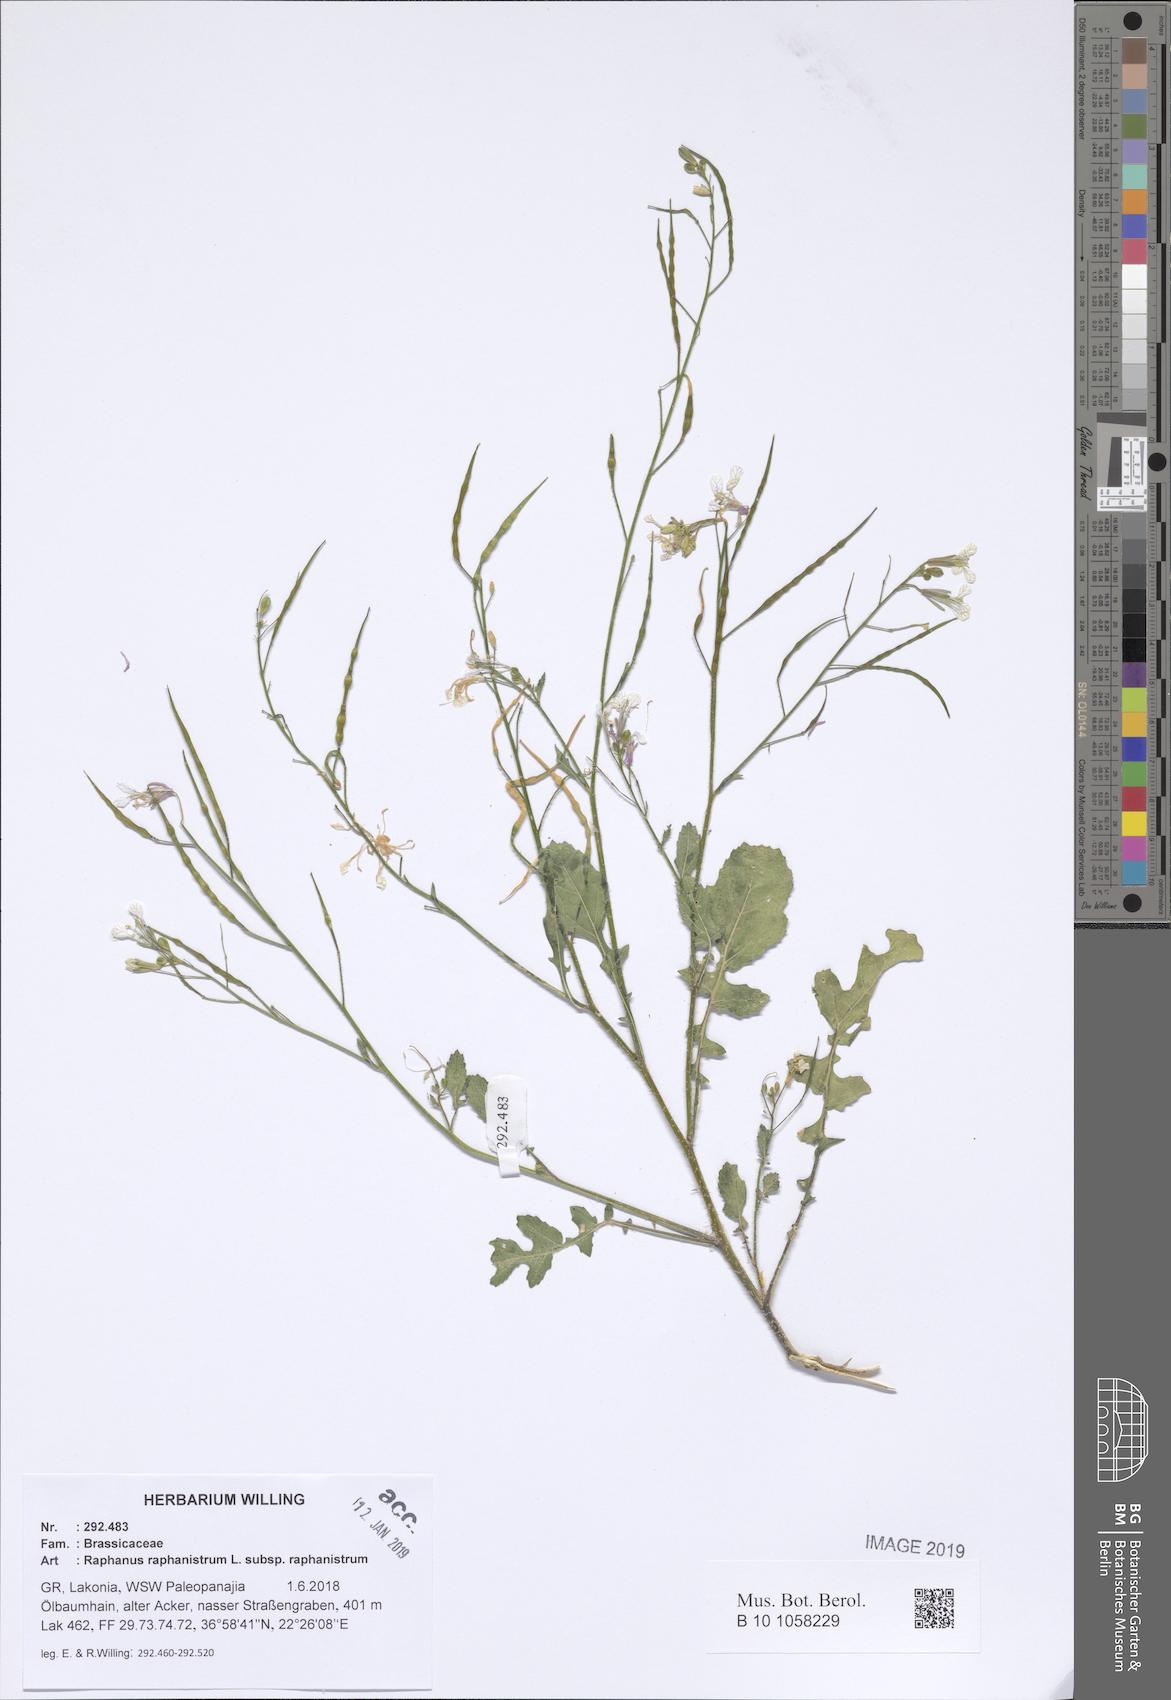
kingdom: Plantae
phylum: Tracheophyta
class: Magnoliopsida
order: Brassicales
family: Brassicaceae
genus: Raphanus
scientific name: Raphanus raphanistrum
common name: Wild radish
